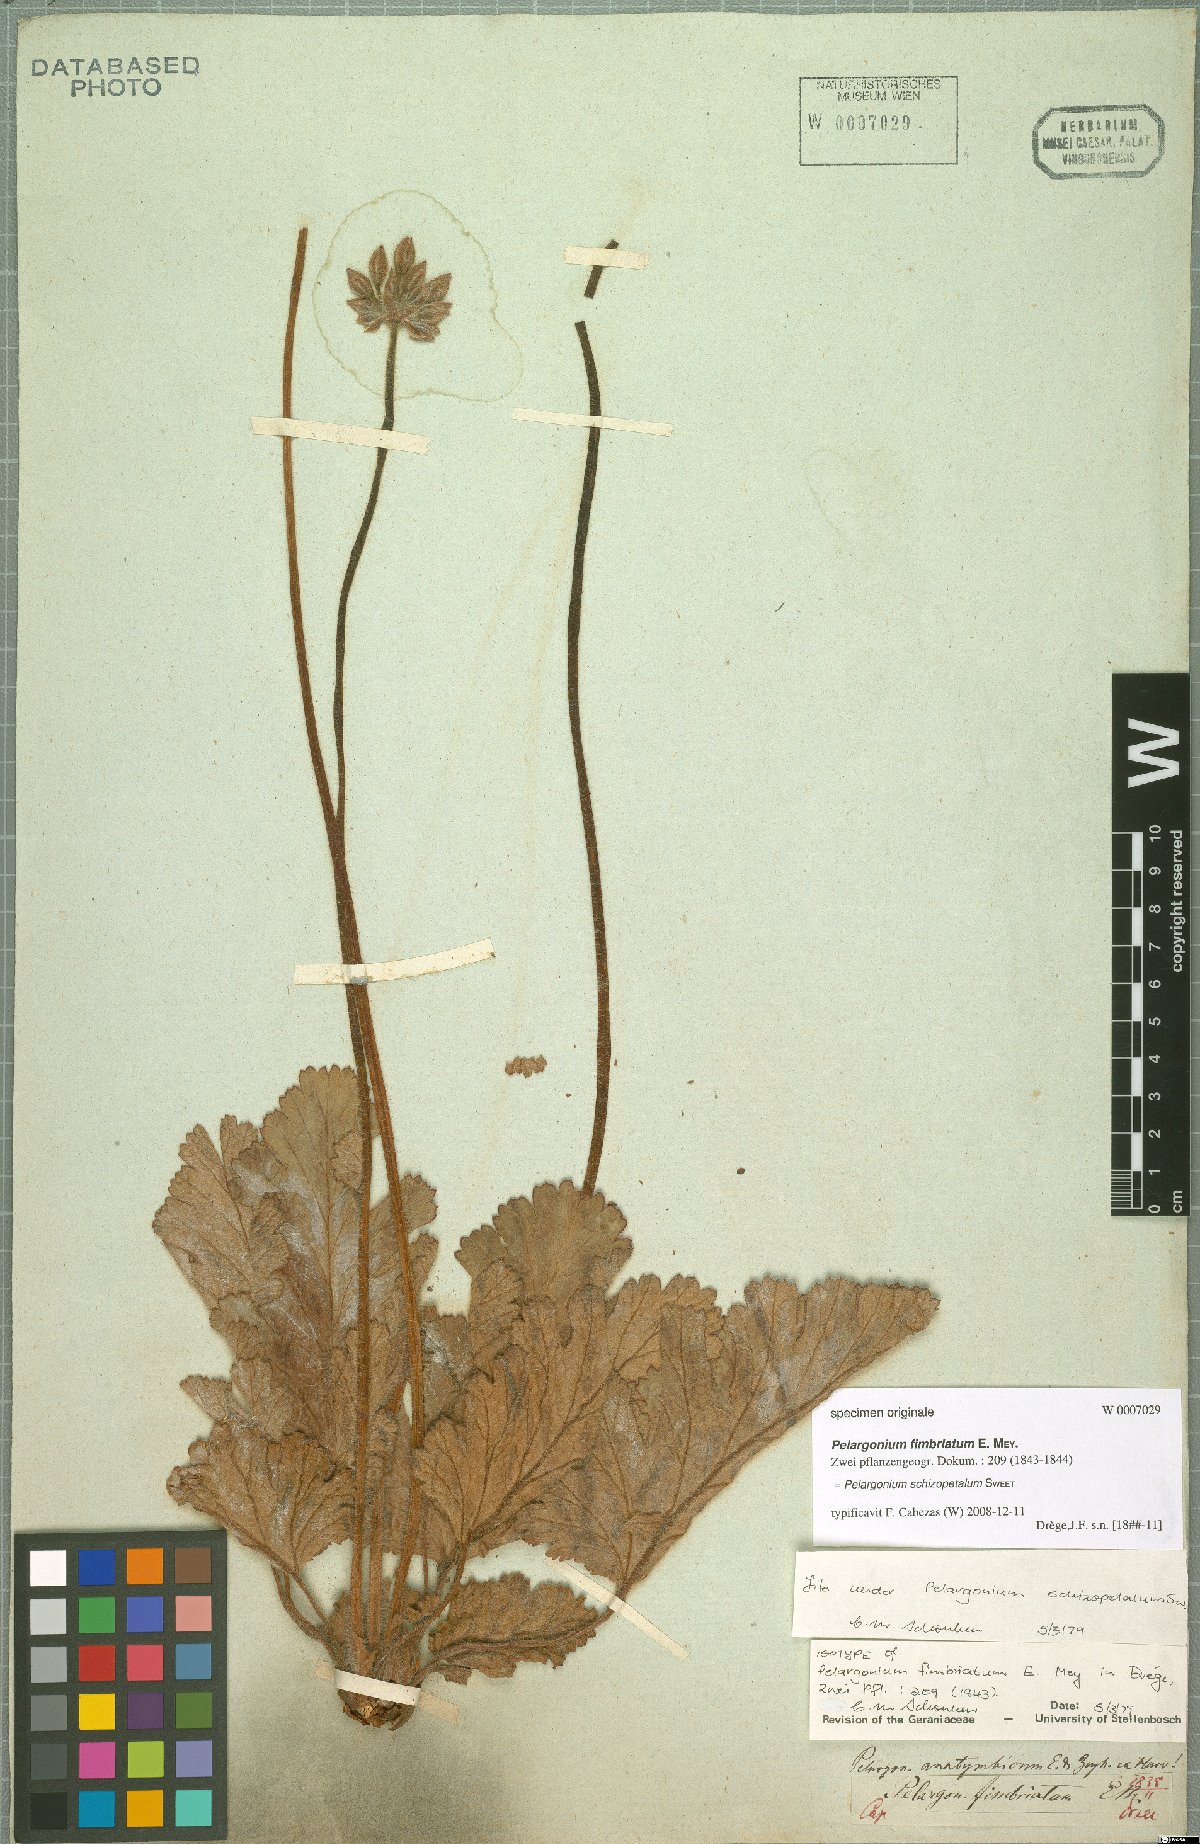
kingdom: Plantae
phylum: Tracheophyta
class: Magnoliopsida
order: Geraniales
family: Geraniaceae
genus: Pelargonium
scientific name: Pelargonium schizopetalum
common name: Divided-petal pelargonium
